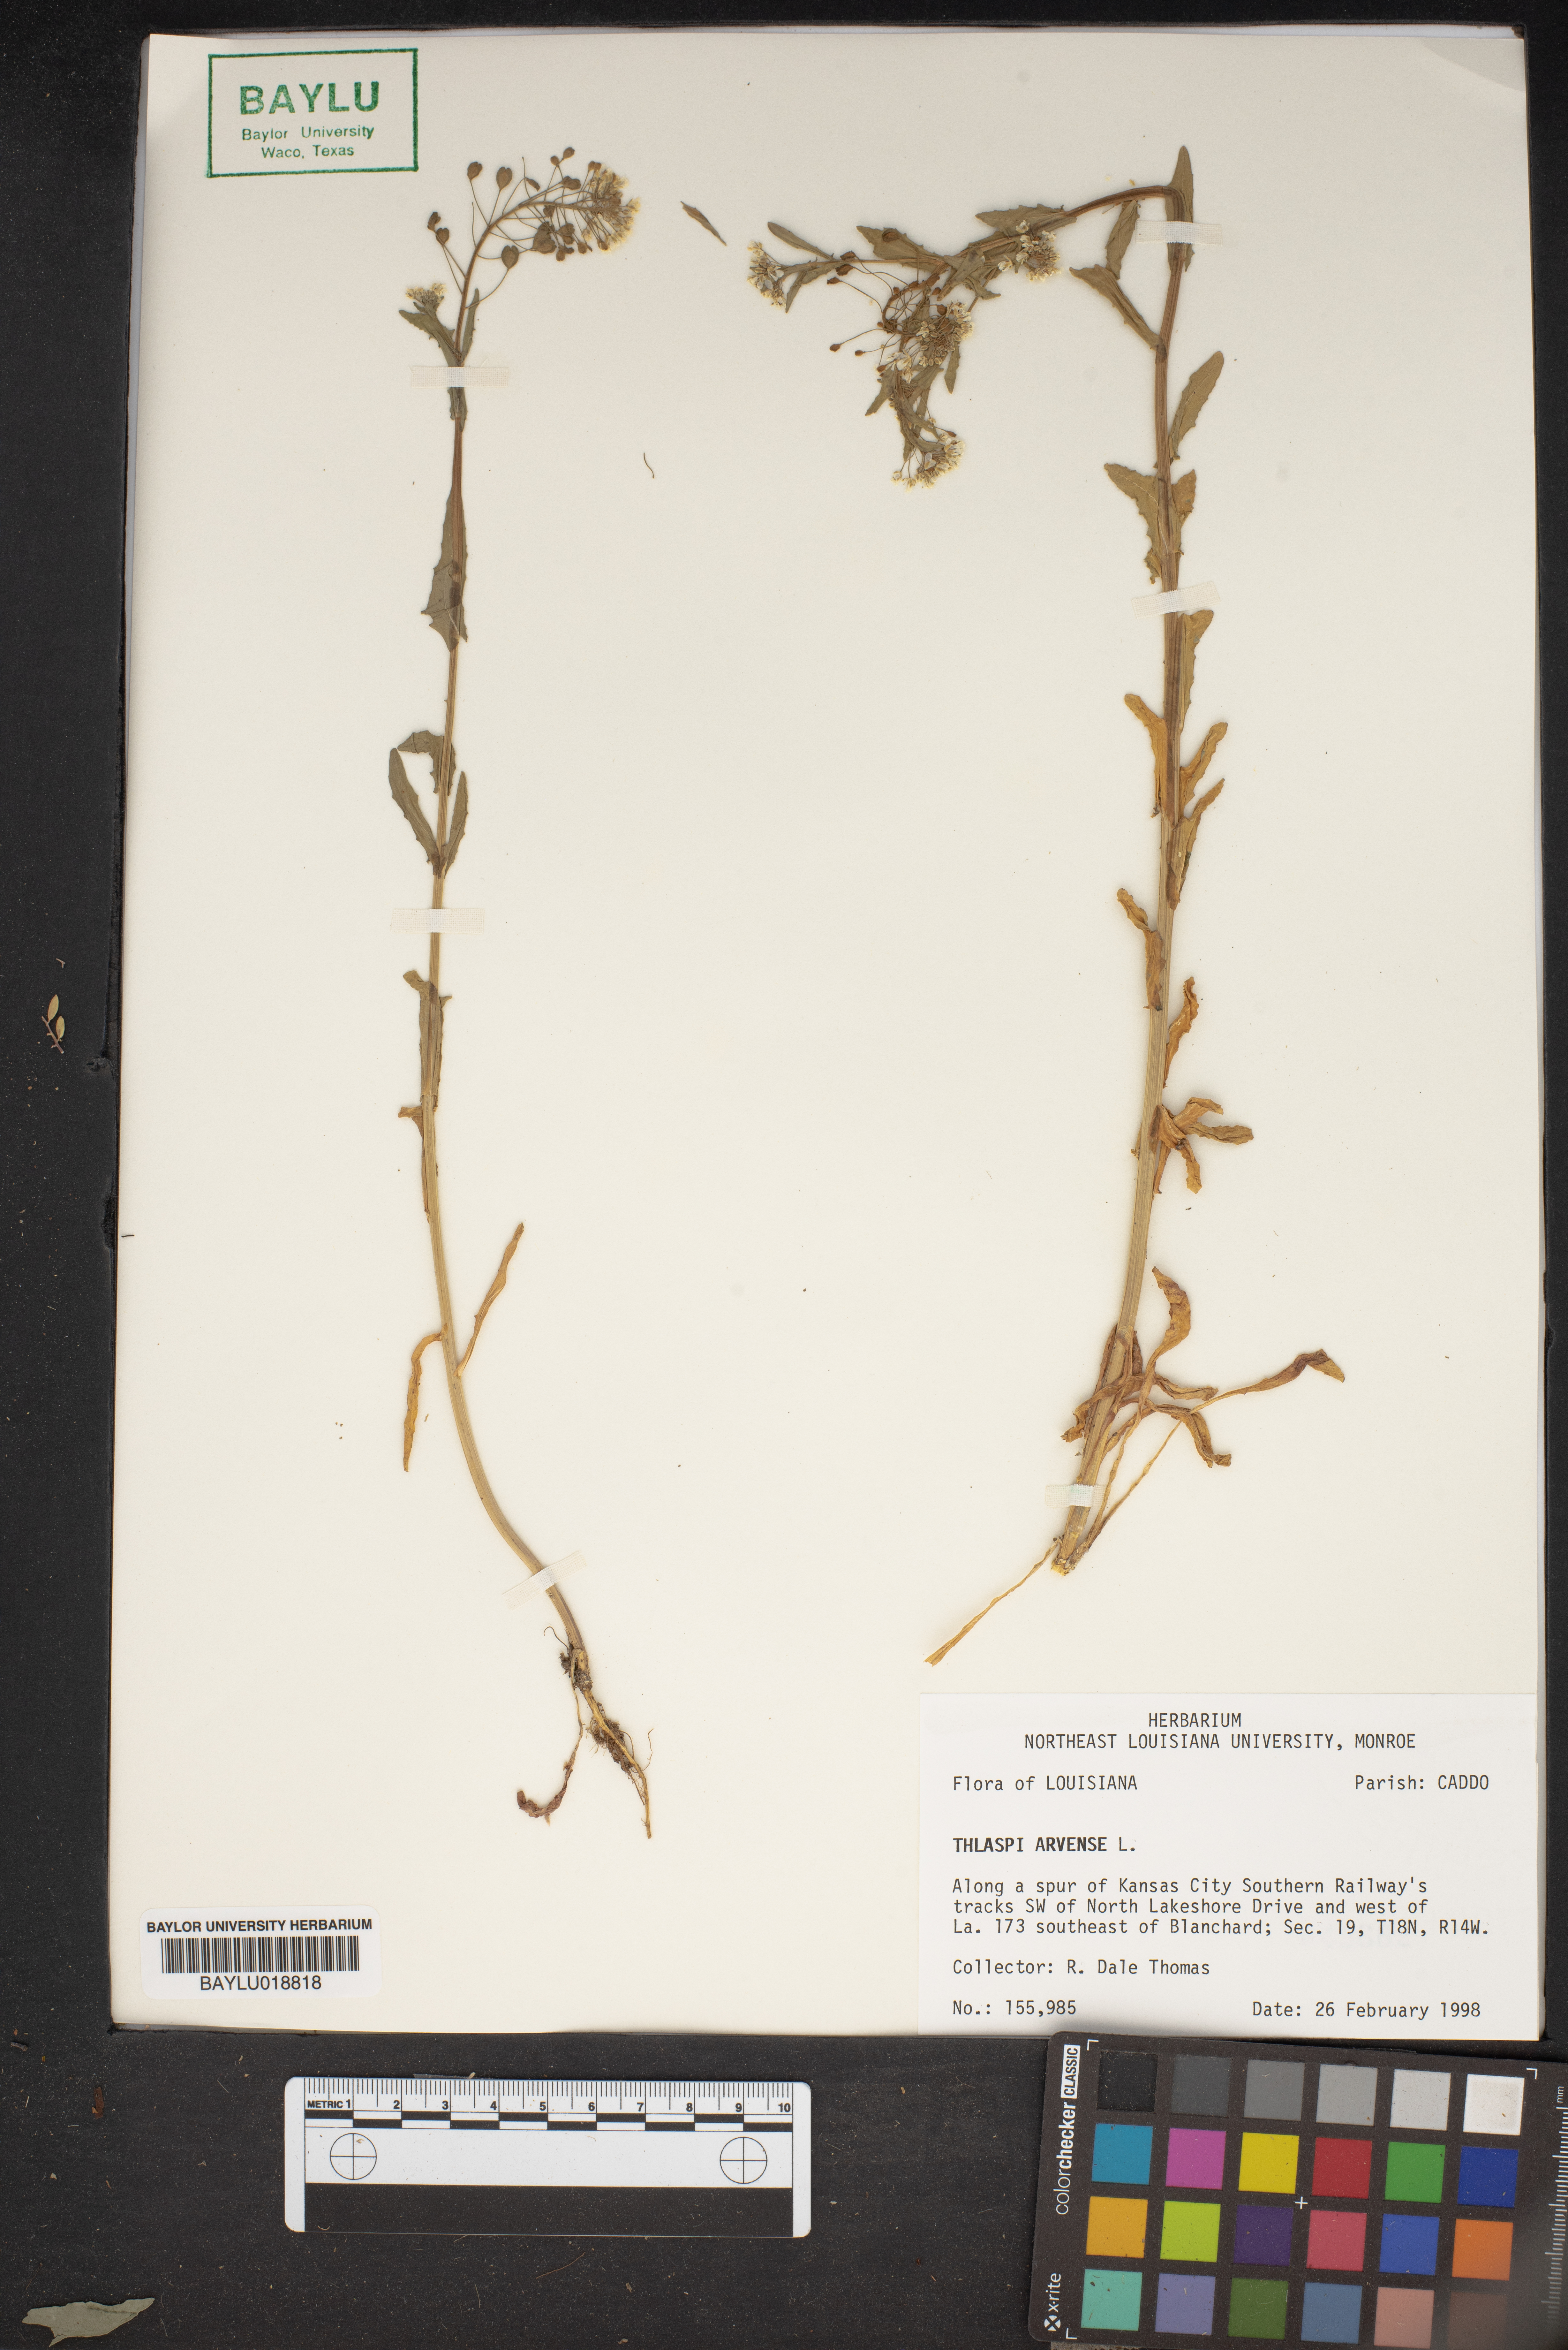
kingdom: Plantae
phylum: Tracheophyta
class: Magnoliopsida
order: Brassicales
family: Brassicaceae
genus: Thlaspi
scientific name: Thlaspi arvense
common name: Field pennycress
